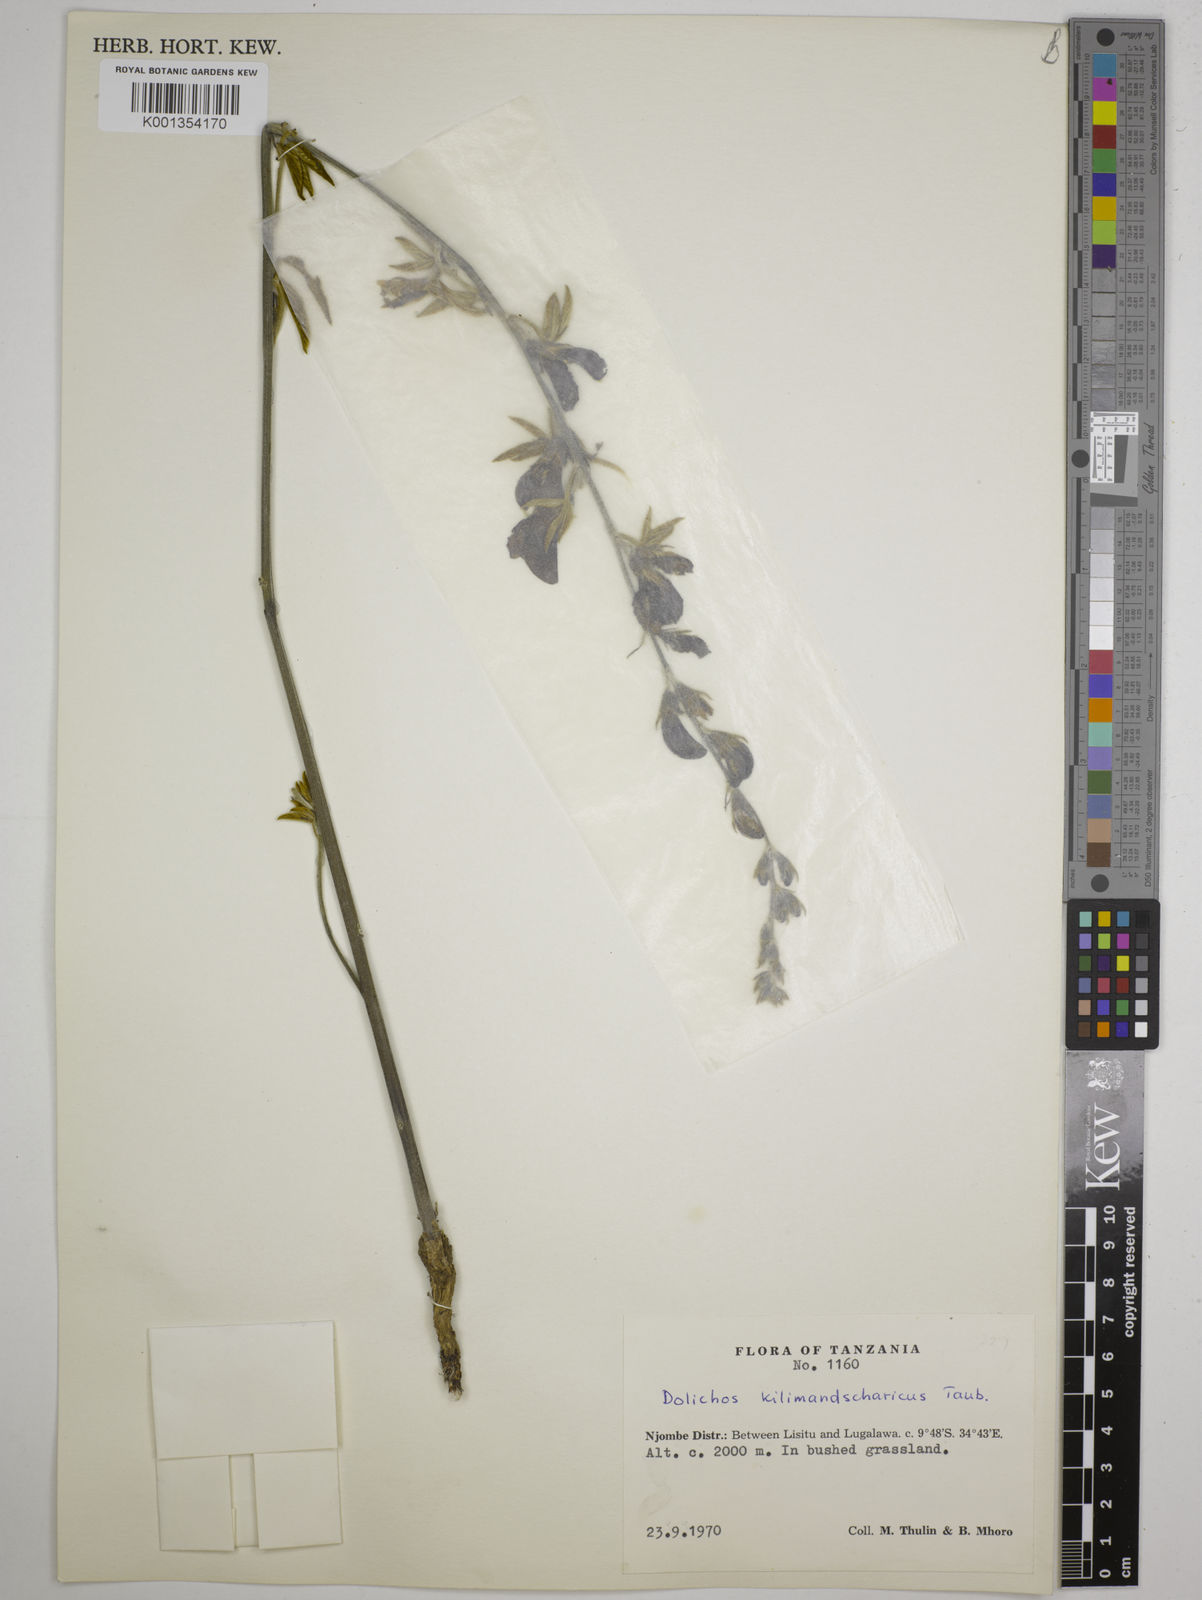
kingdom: Plantae
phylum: Tracheophyta
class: Magnoliopsida
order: Fabales
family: Fabaceae
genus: Dolichos
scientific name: Dolichos kilimandscharicus
